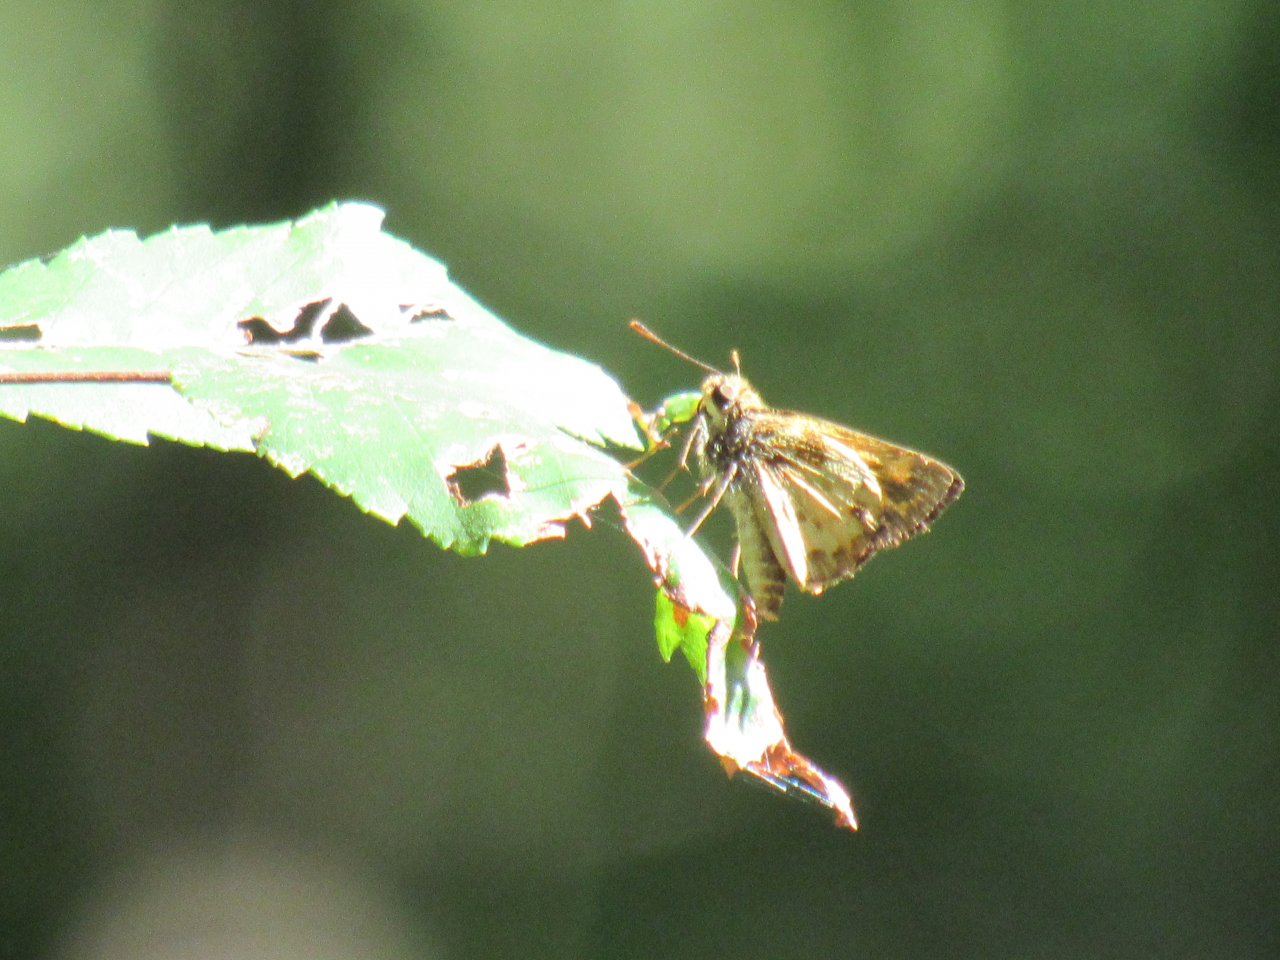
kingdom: Animalia
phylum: Arthropoda
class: Insecta
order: Lepidoptera
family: Hesperiidae
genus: Lon
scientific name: Lon zabulon
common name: Zabulon Skipper
